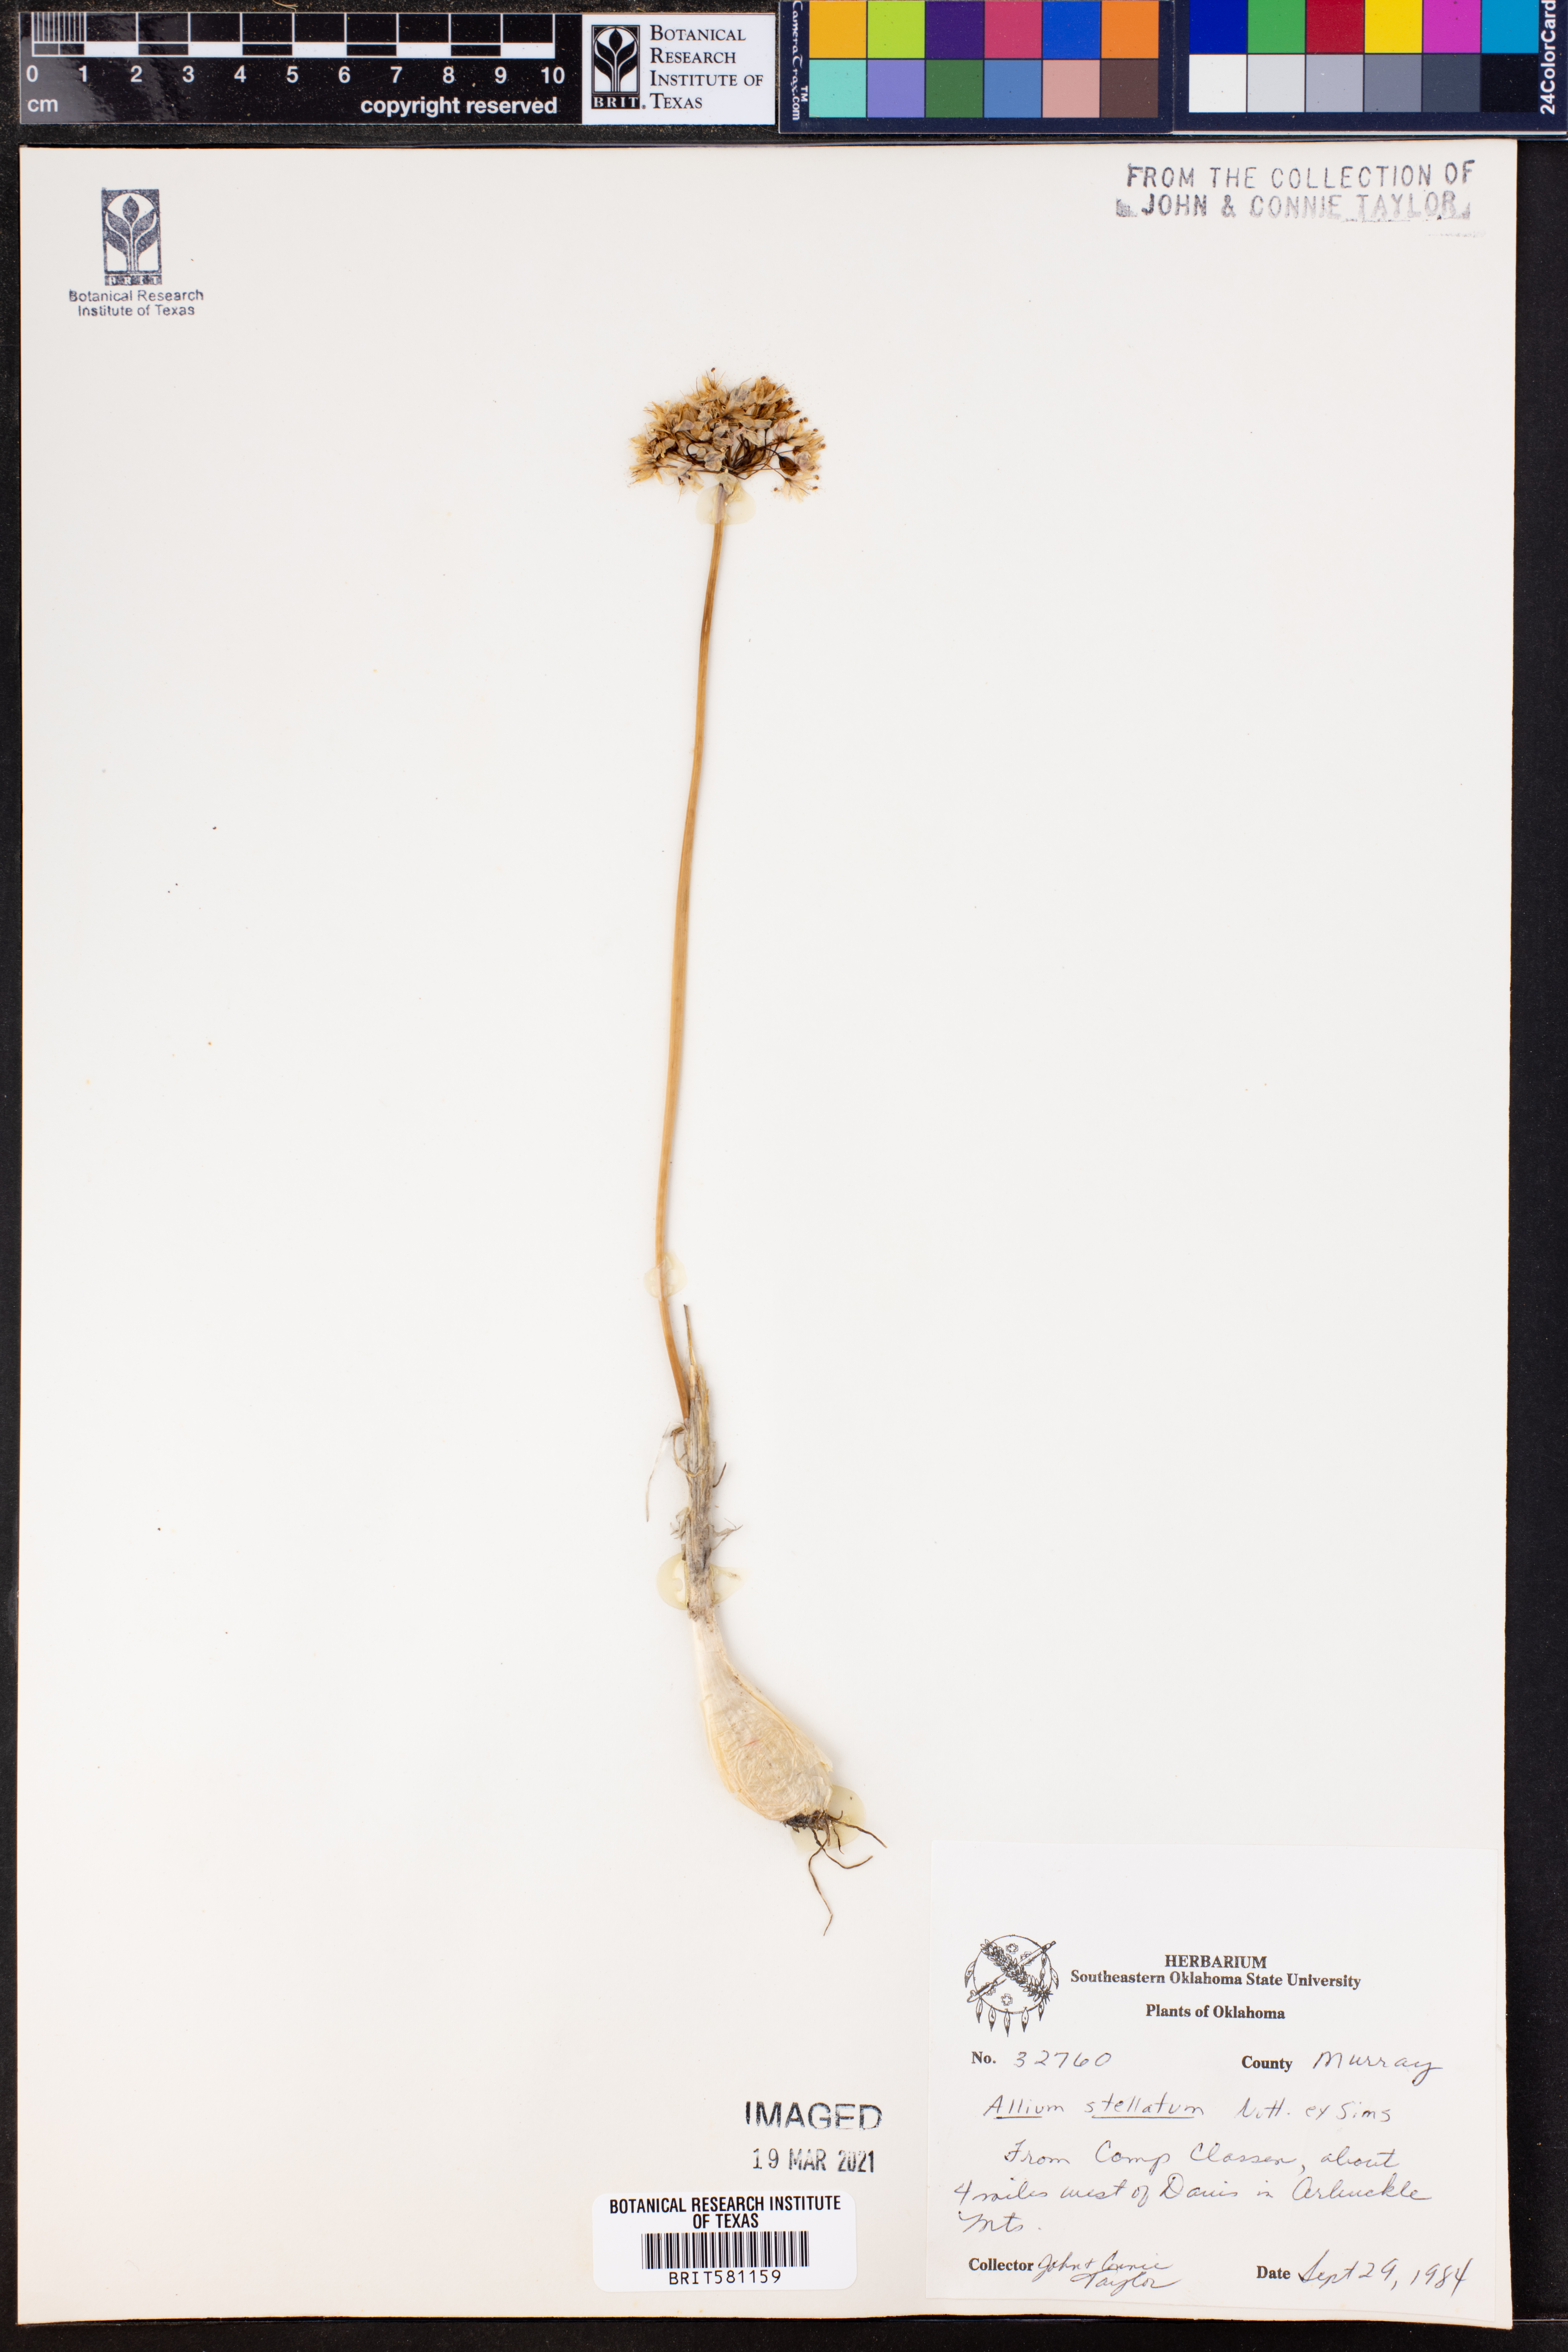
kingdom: Plantae
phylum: Tracheophyta
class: Liliopsida
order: Asparagales
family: Amaryllidaceae
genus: Allium
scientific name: Allium stellatum
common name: Autumn onion
